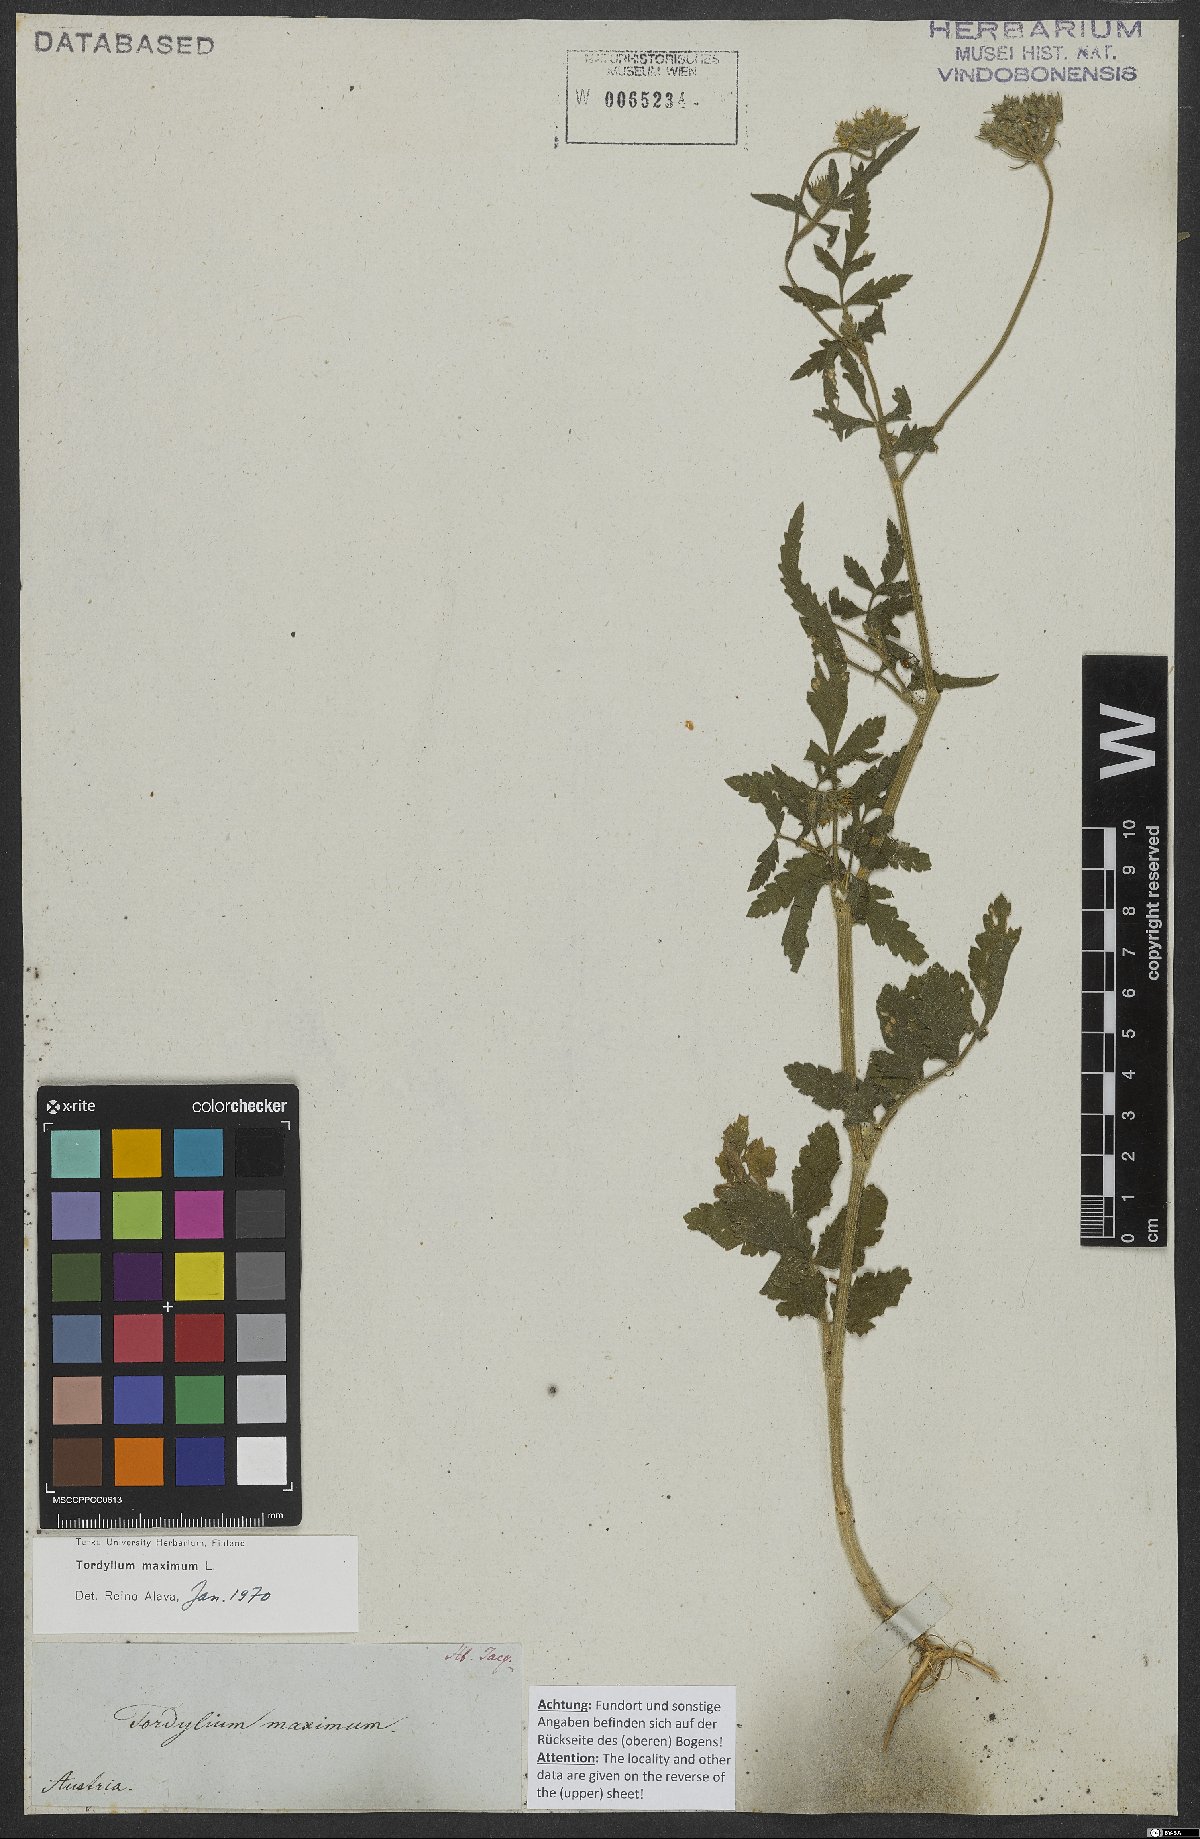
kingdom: Plantae
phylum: Tracheophyta
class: Magnoliopsida
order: Apiales
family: Apiaceae
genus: Tordylium
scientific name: Tordylium maximum
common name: Hartwort
